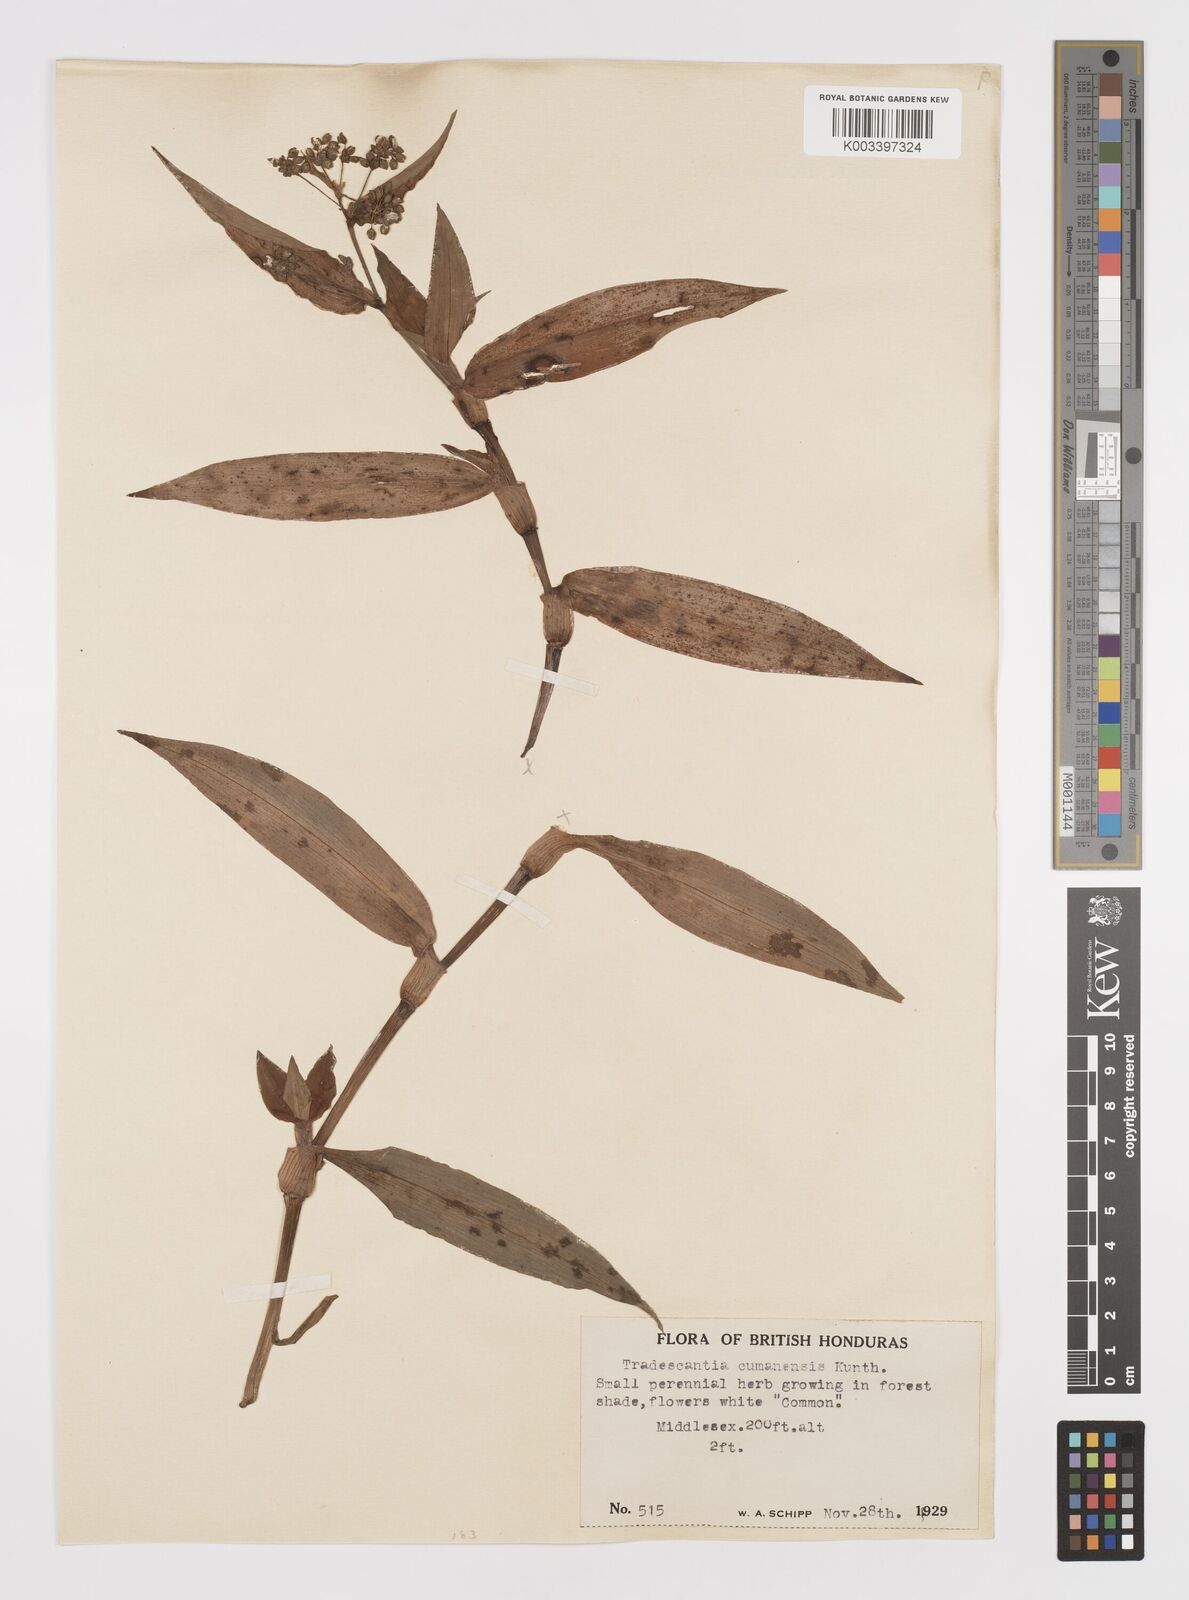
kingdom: Plantae
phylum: Tracheophyta
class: Liliopsida
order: Commelinales
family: Commelinaceae
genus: Callisia
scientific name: Callisia serrulata
